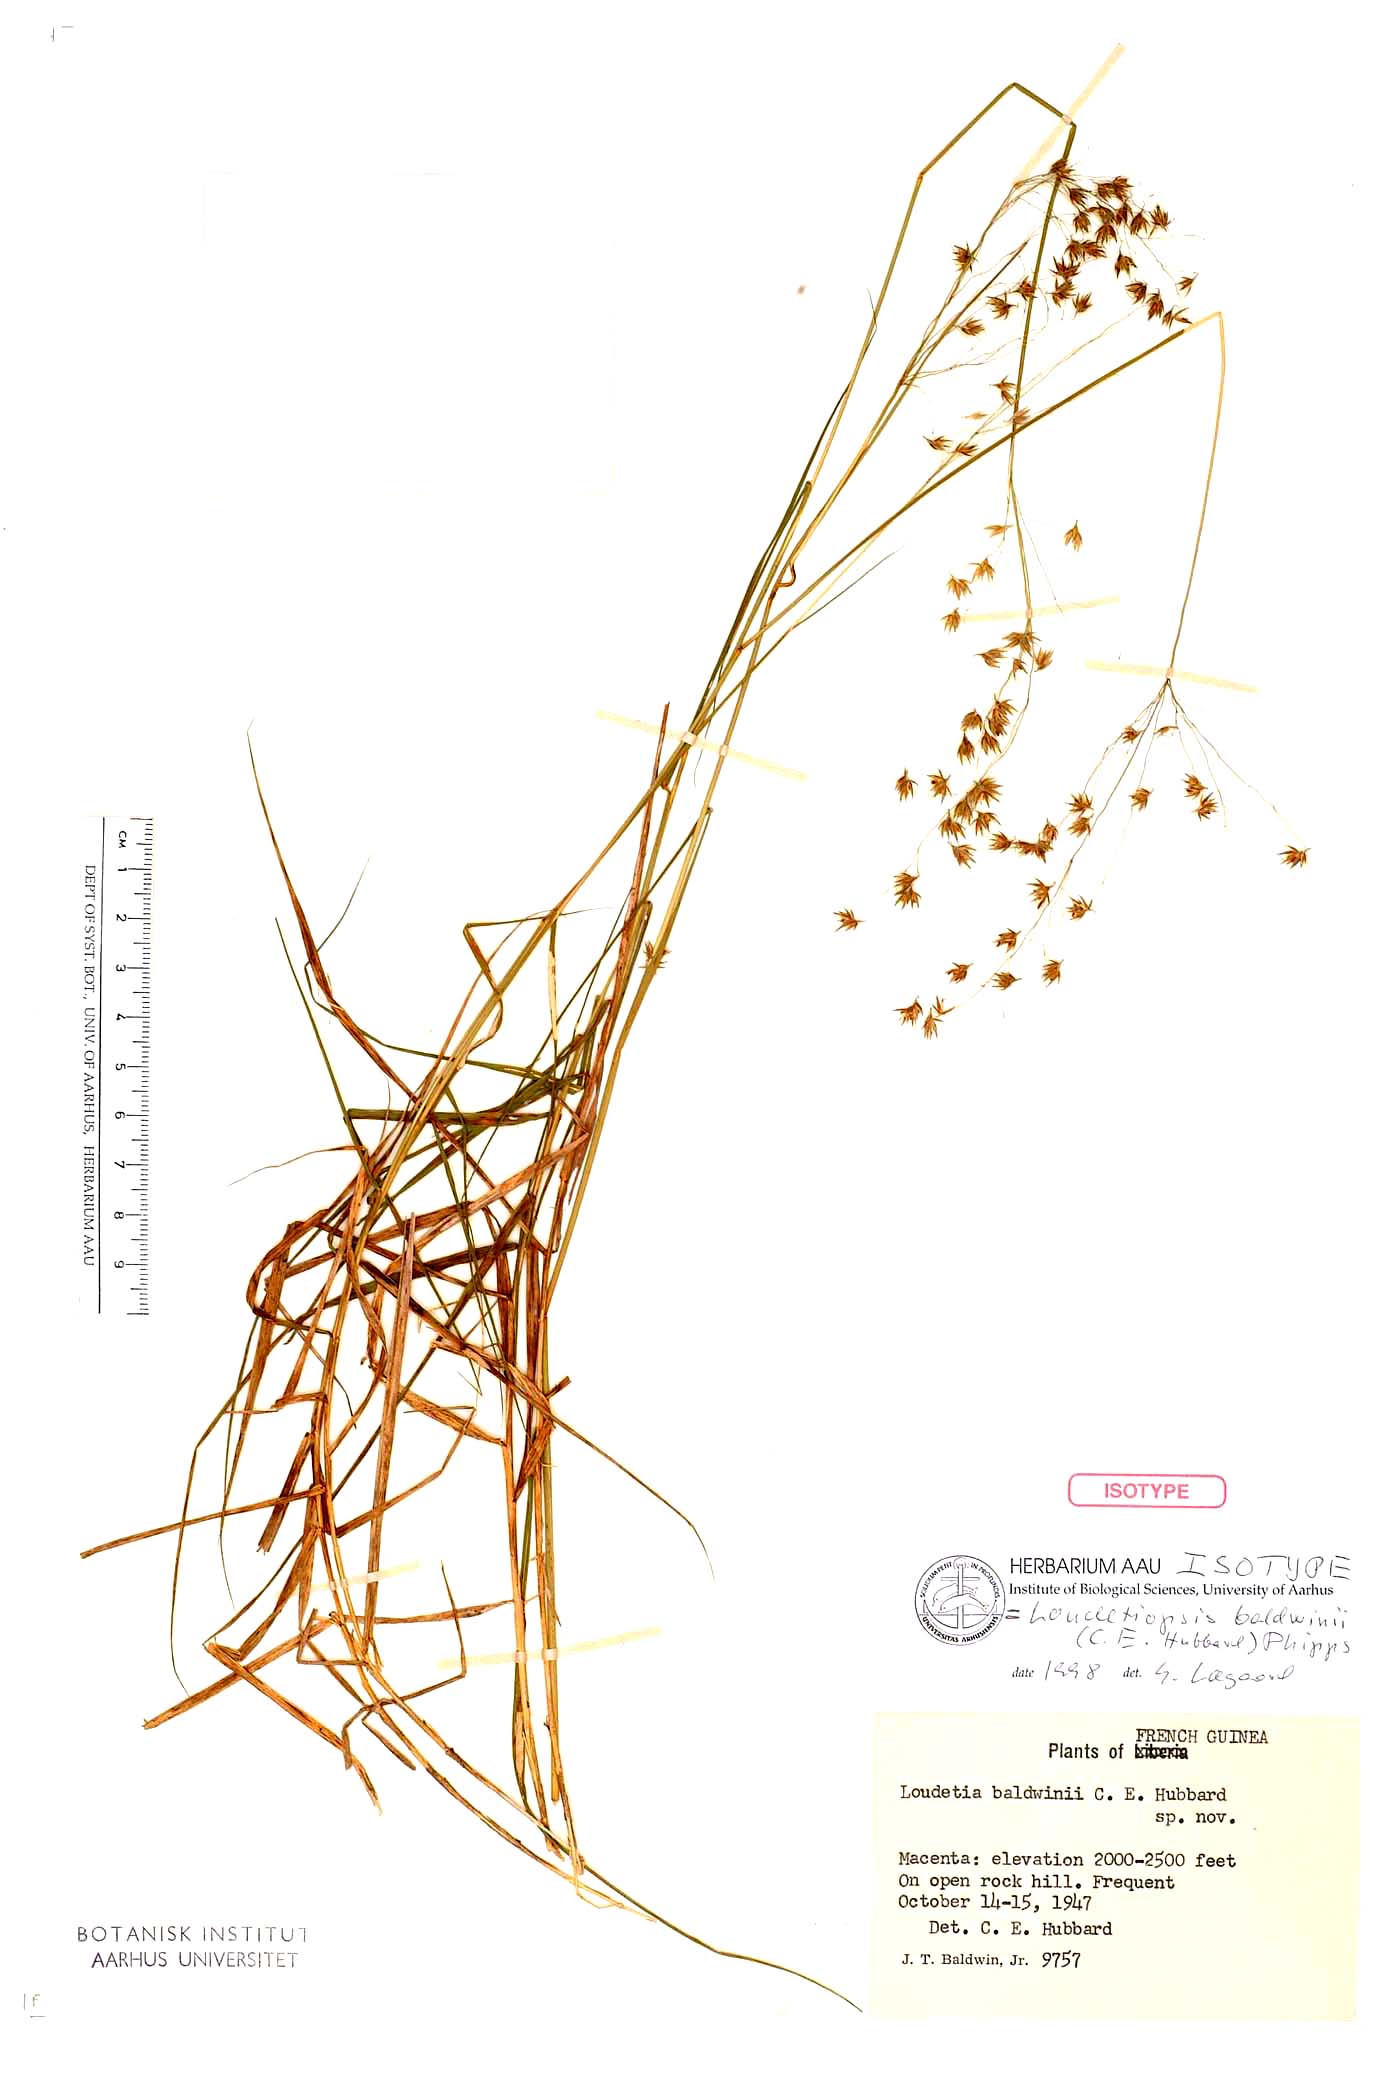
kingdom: Plantae
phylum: Tracheophyta
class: Liliopsida
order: Poales
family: Poaceae
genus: Loudetiopsis
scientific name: Loudetiopsis baldwinii
